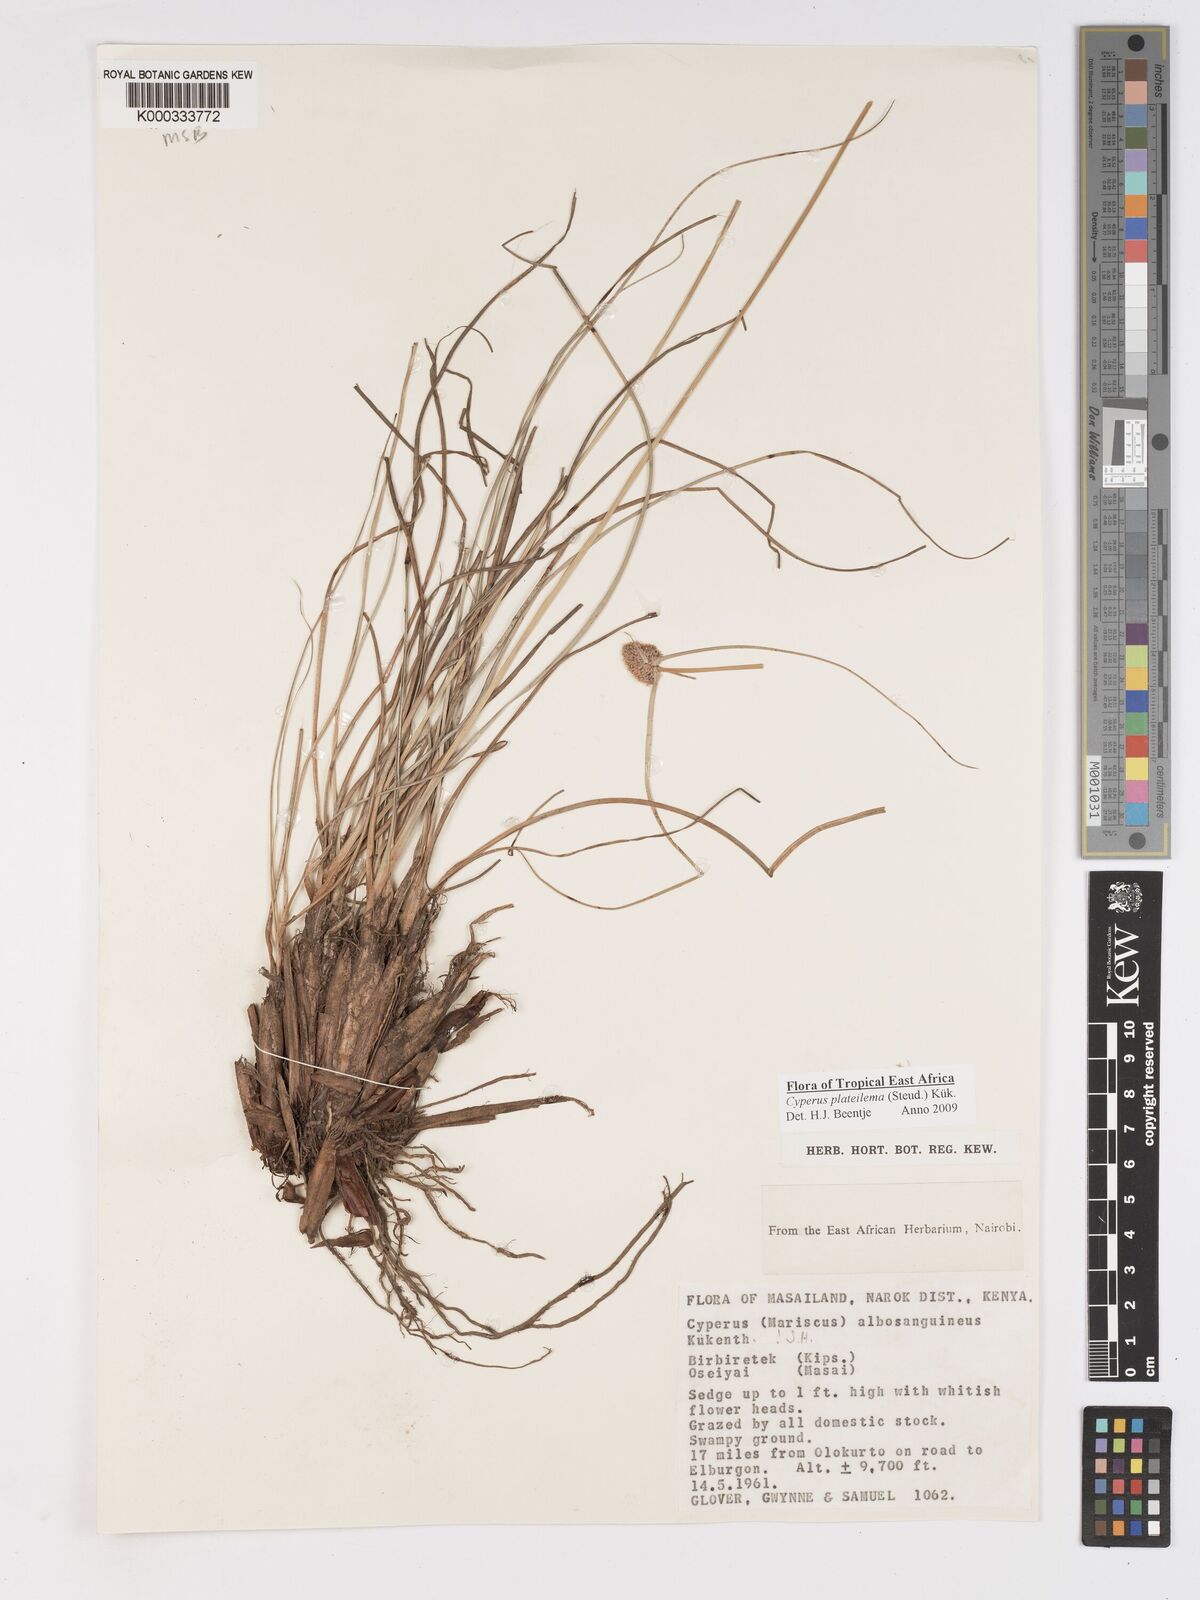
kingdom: Plantae
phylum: Tracheophyta
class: Liliopsida
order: Poales
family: Cyperaceae
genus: Cyperus
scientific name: Cyperus
